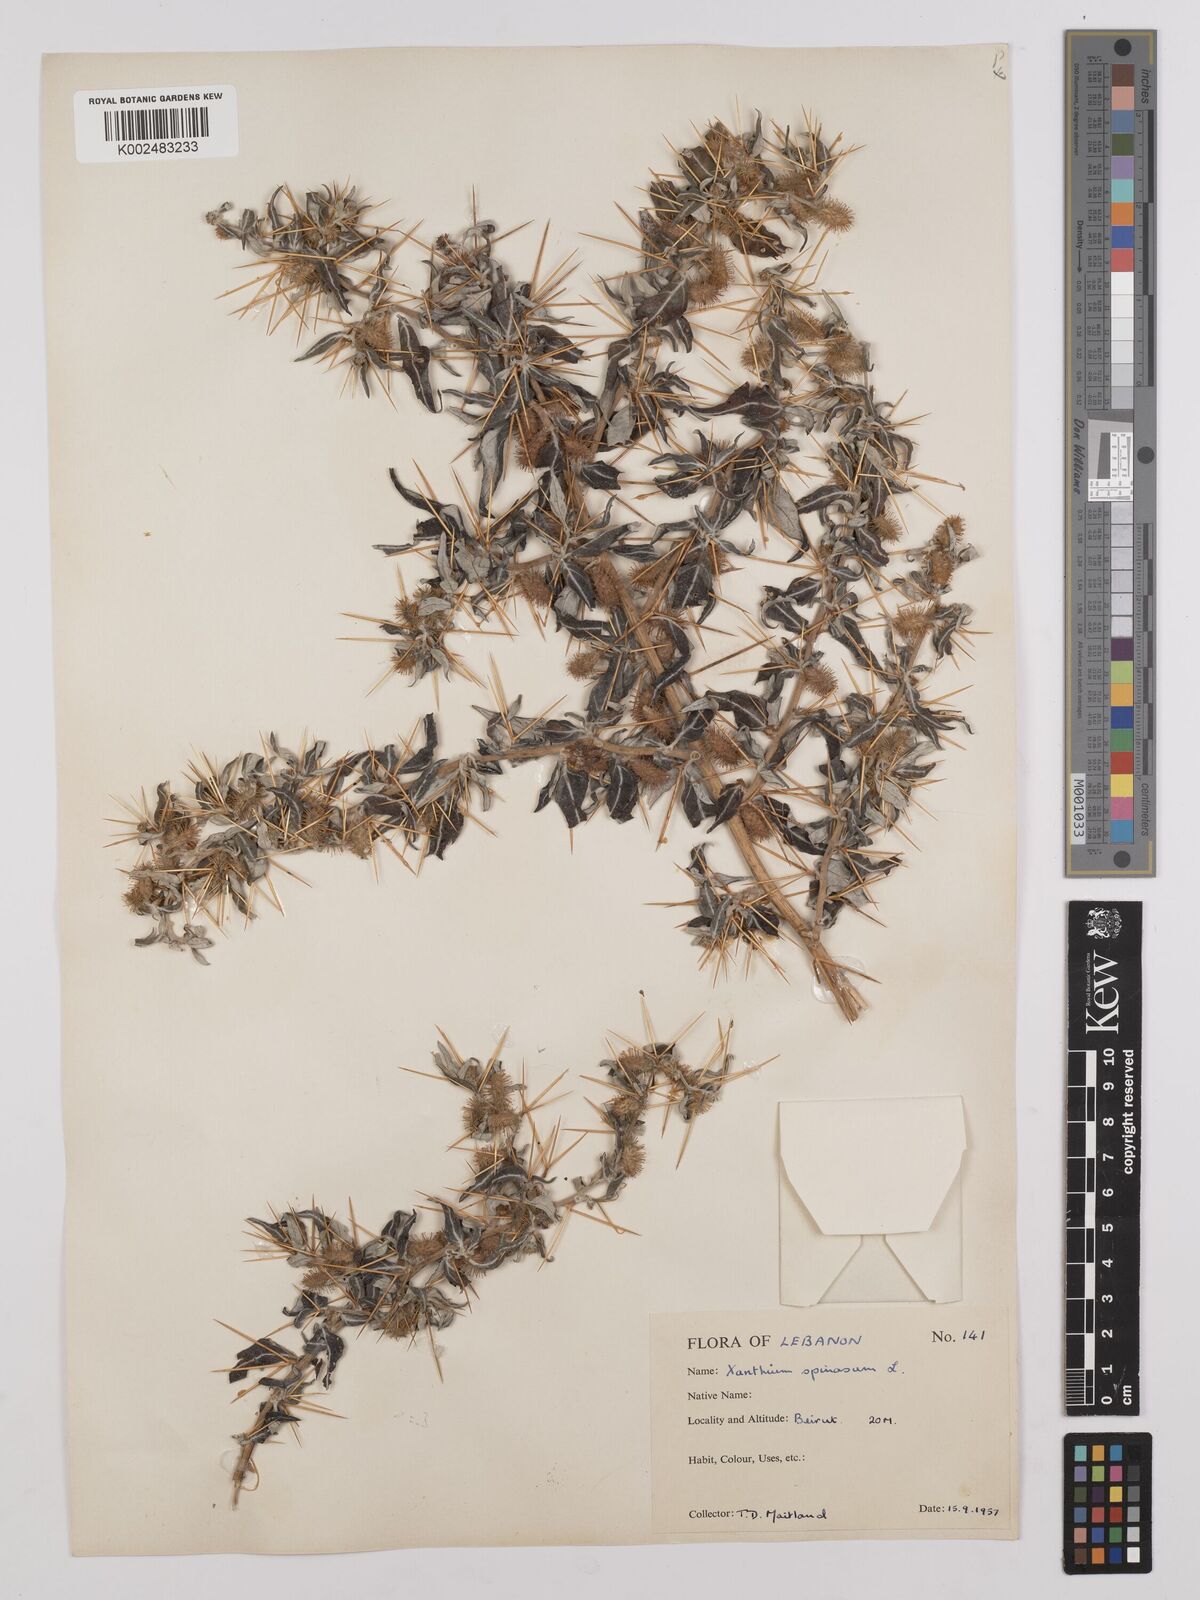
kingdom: Plantae
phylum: Tracheophyta
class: Magnoliopsida
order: Asterales
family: Asteraceae
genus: Xanthium
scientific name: Xanthium spinosum
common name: Spiny cocklebur
